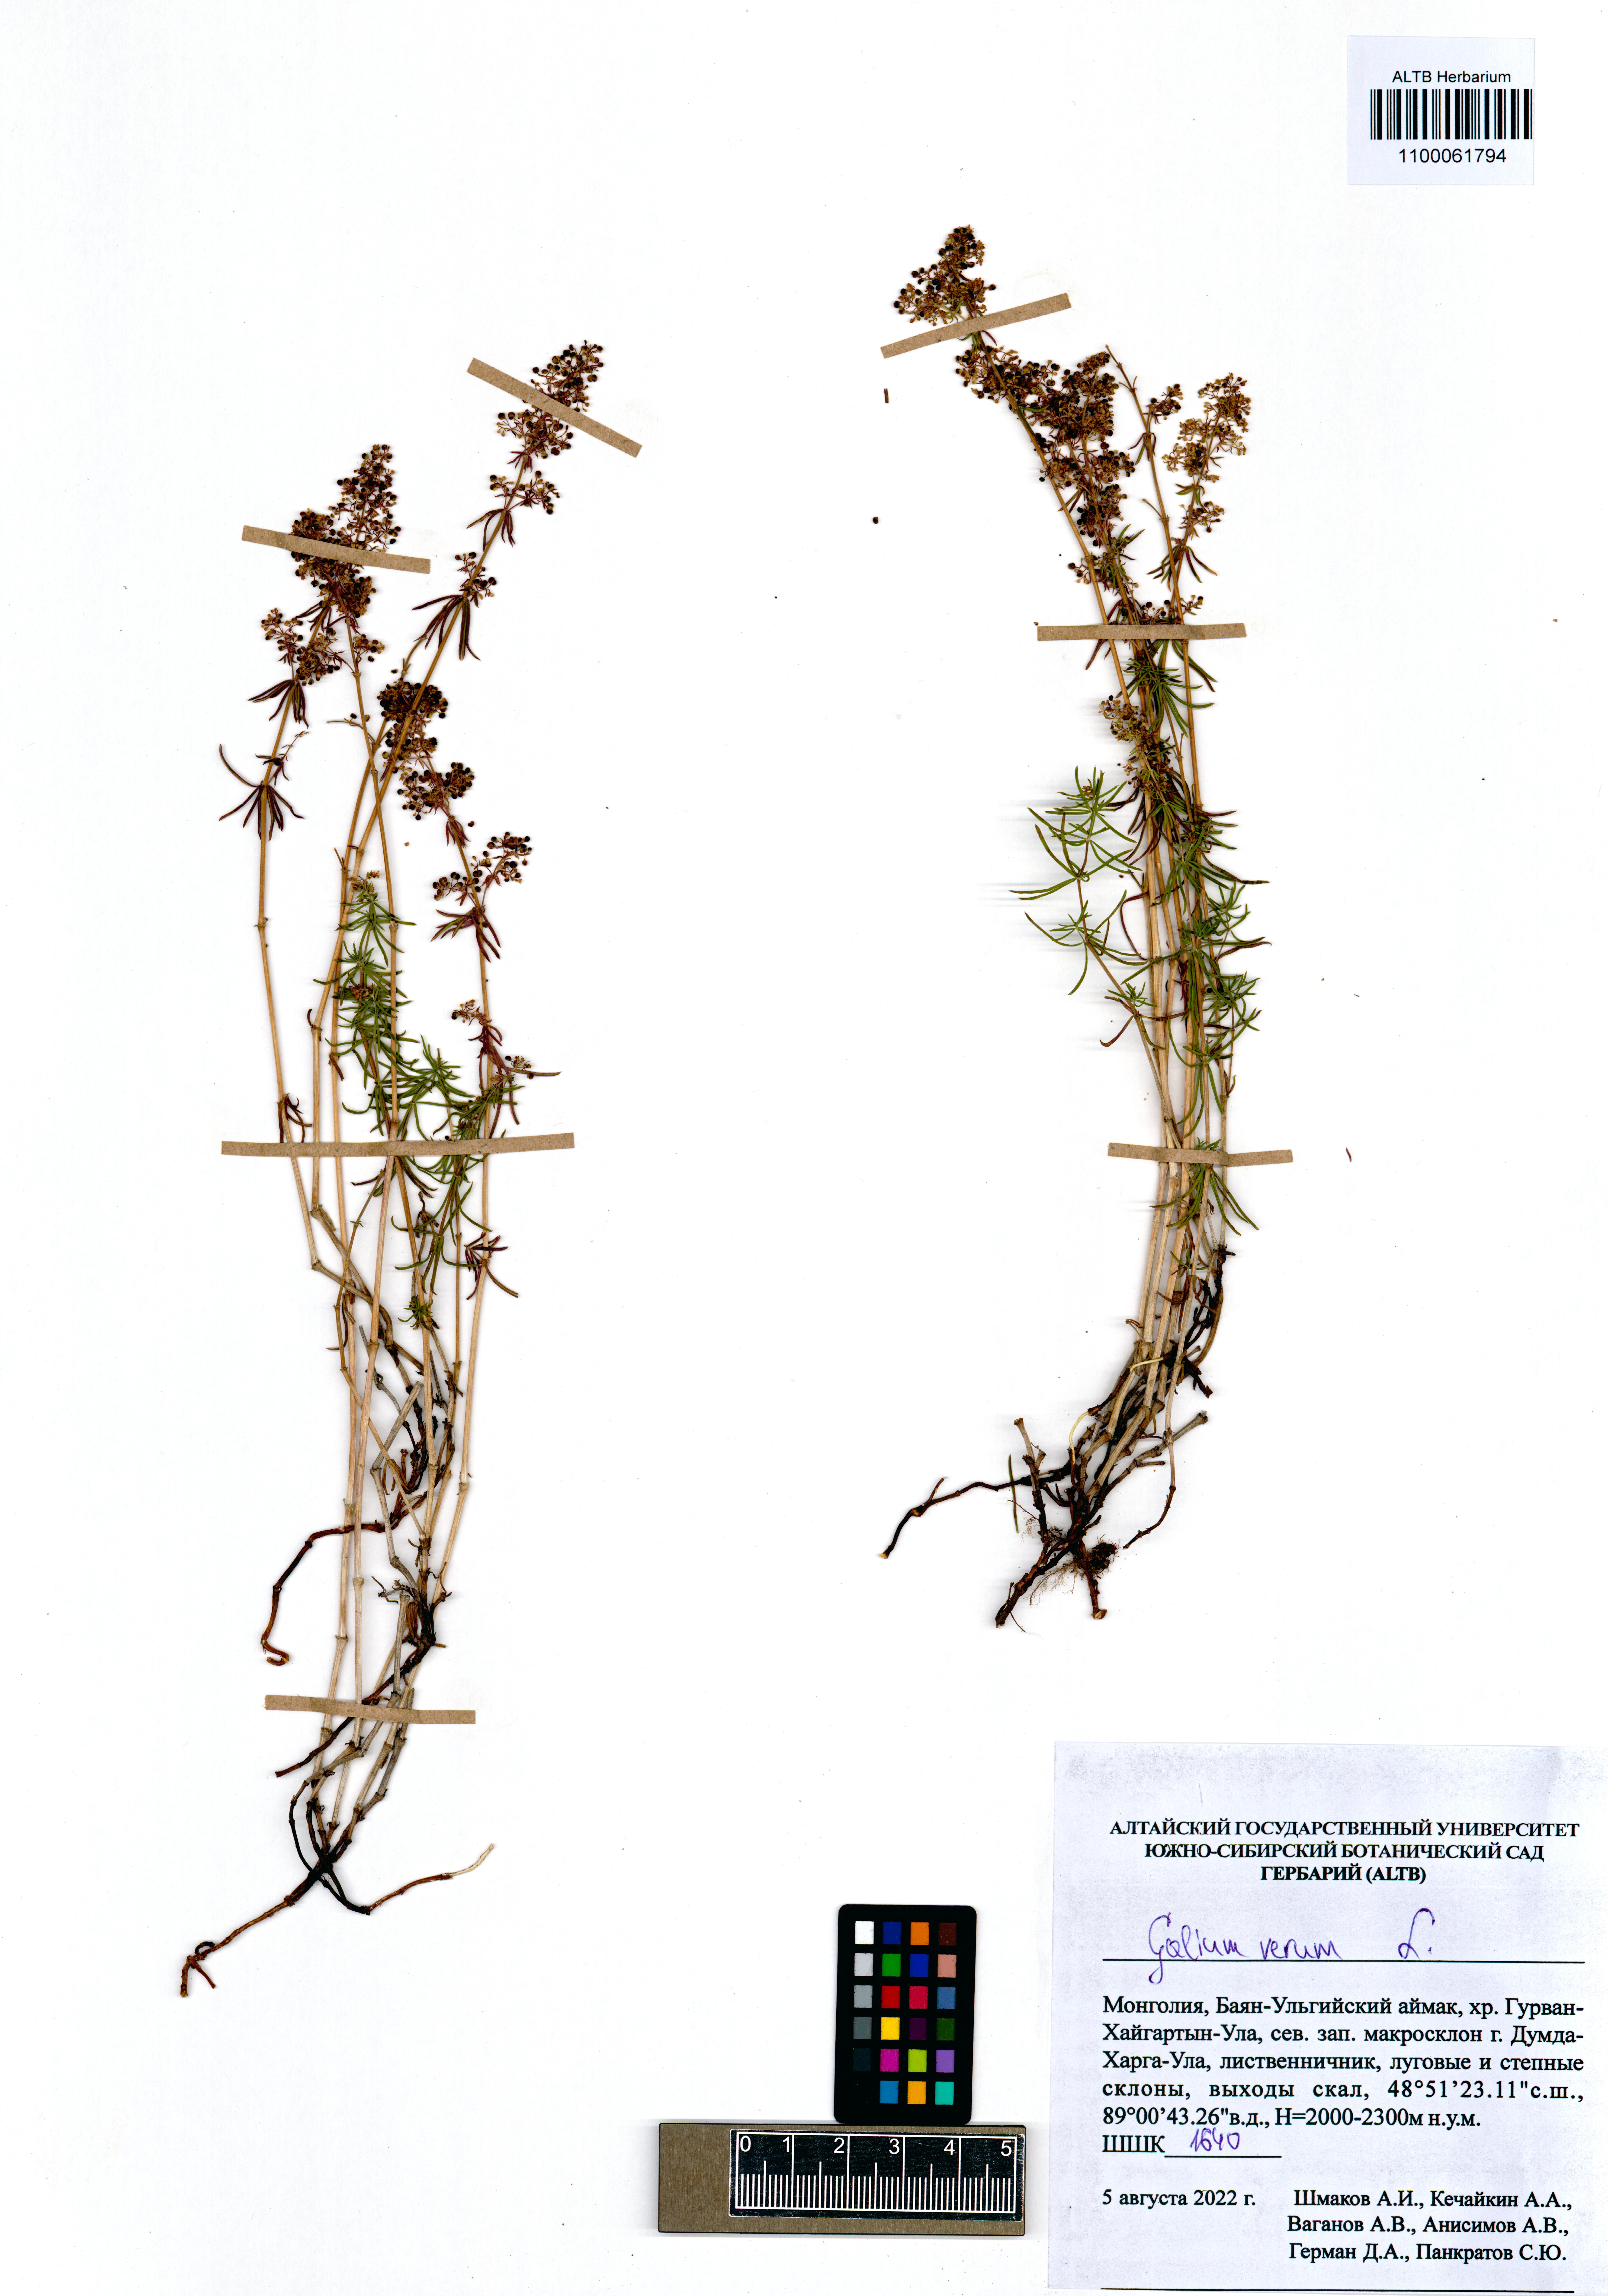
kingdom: Plantae
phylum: Tracheophyta
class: Magnoliopsida
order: Gentianales
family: Rubiaceae
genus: Galium
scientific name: Galium verum
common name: Lady's bedstraw
